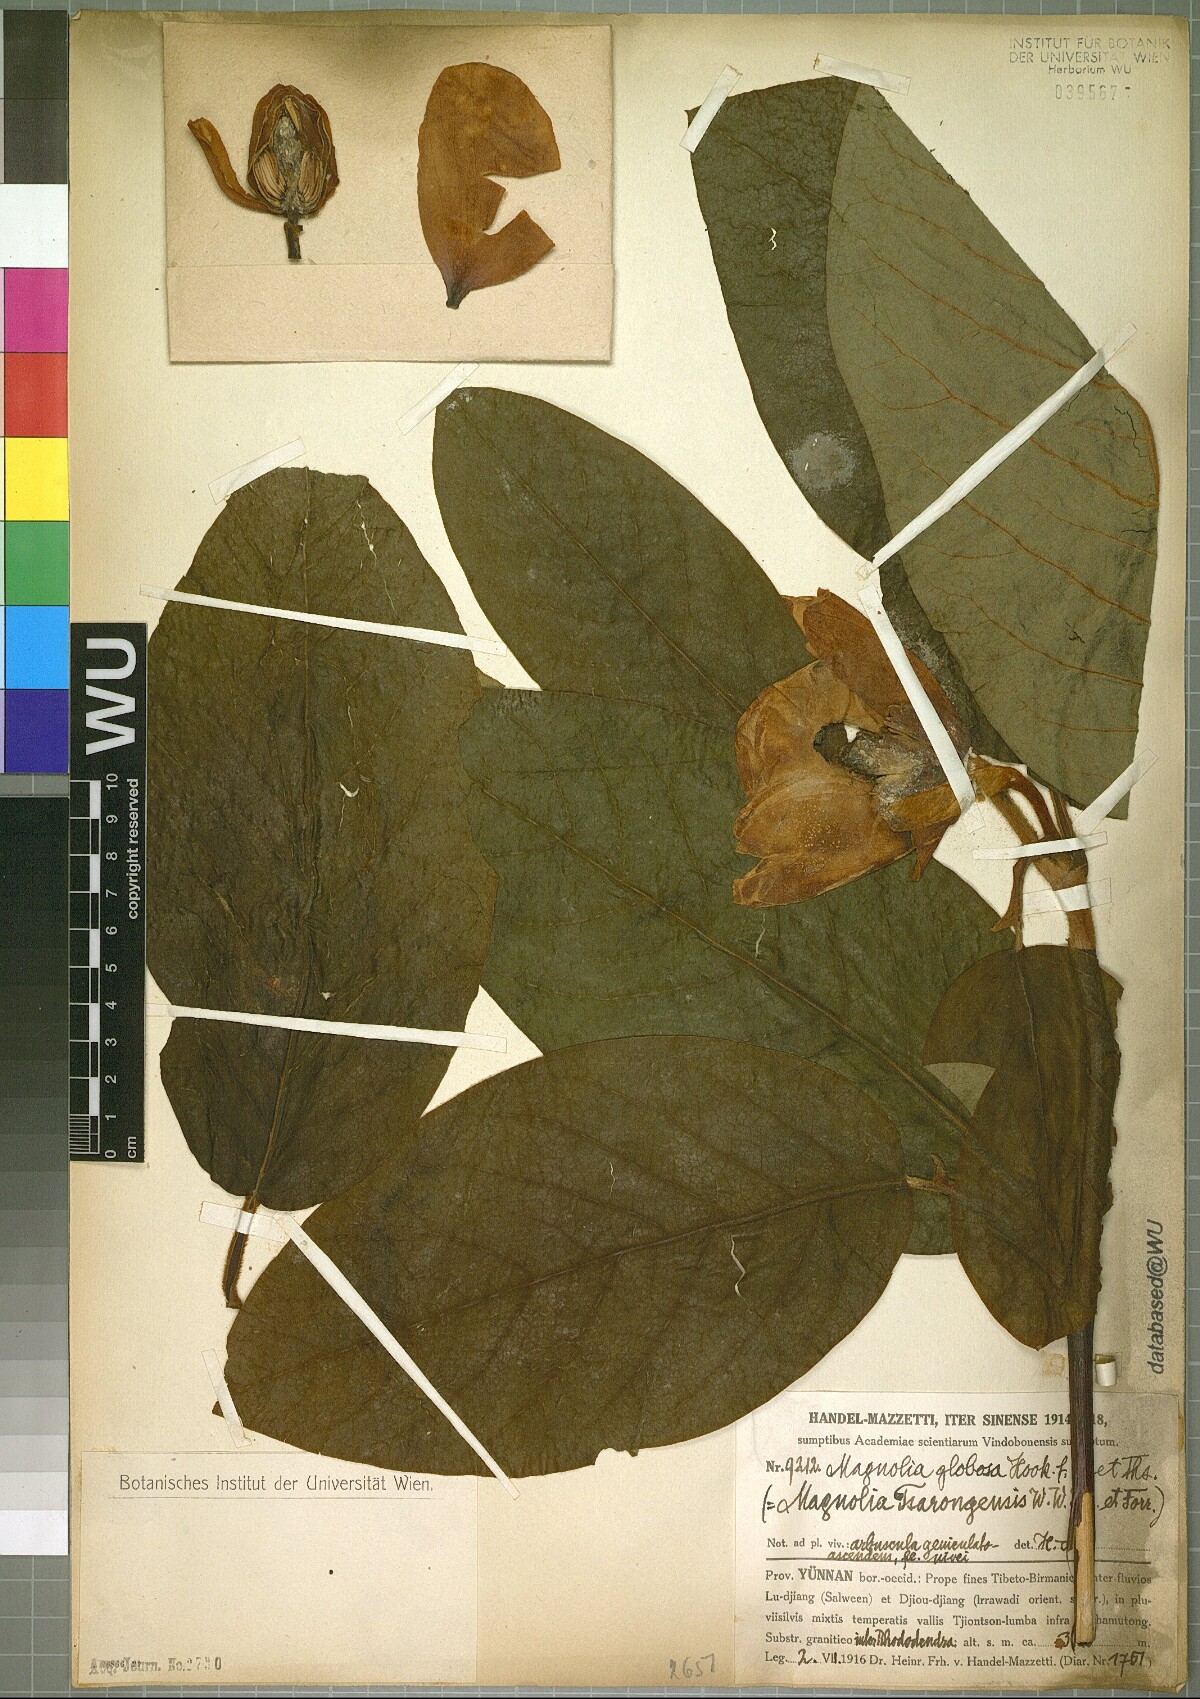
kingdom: Plantae
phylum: Tracheophyta
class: Magnoliopsida
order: Magnoliales
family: Magnoliaceae
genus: Magnolia
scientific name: Magnolia globosa
